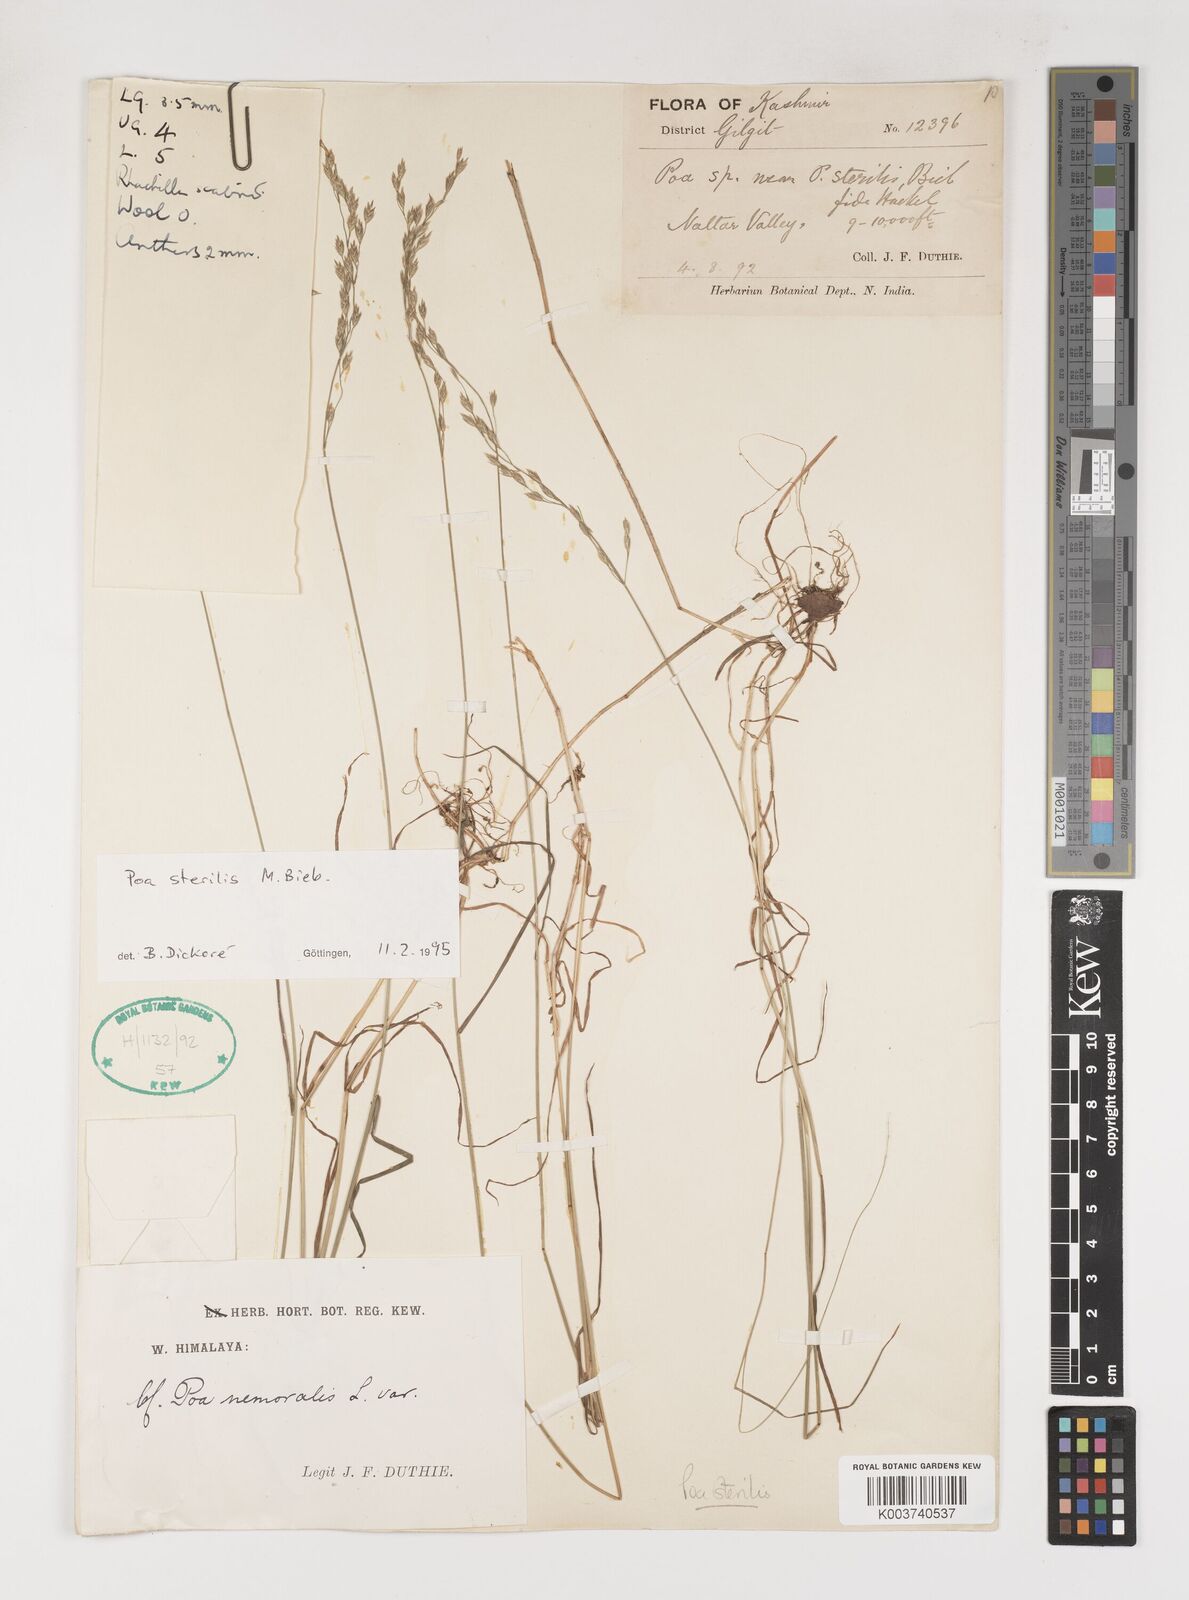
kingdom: Plantae
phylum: Tracheophyta
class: Liliopsida
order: Poales
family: Poaceae
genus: Poa
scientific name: Poa sterilis
